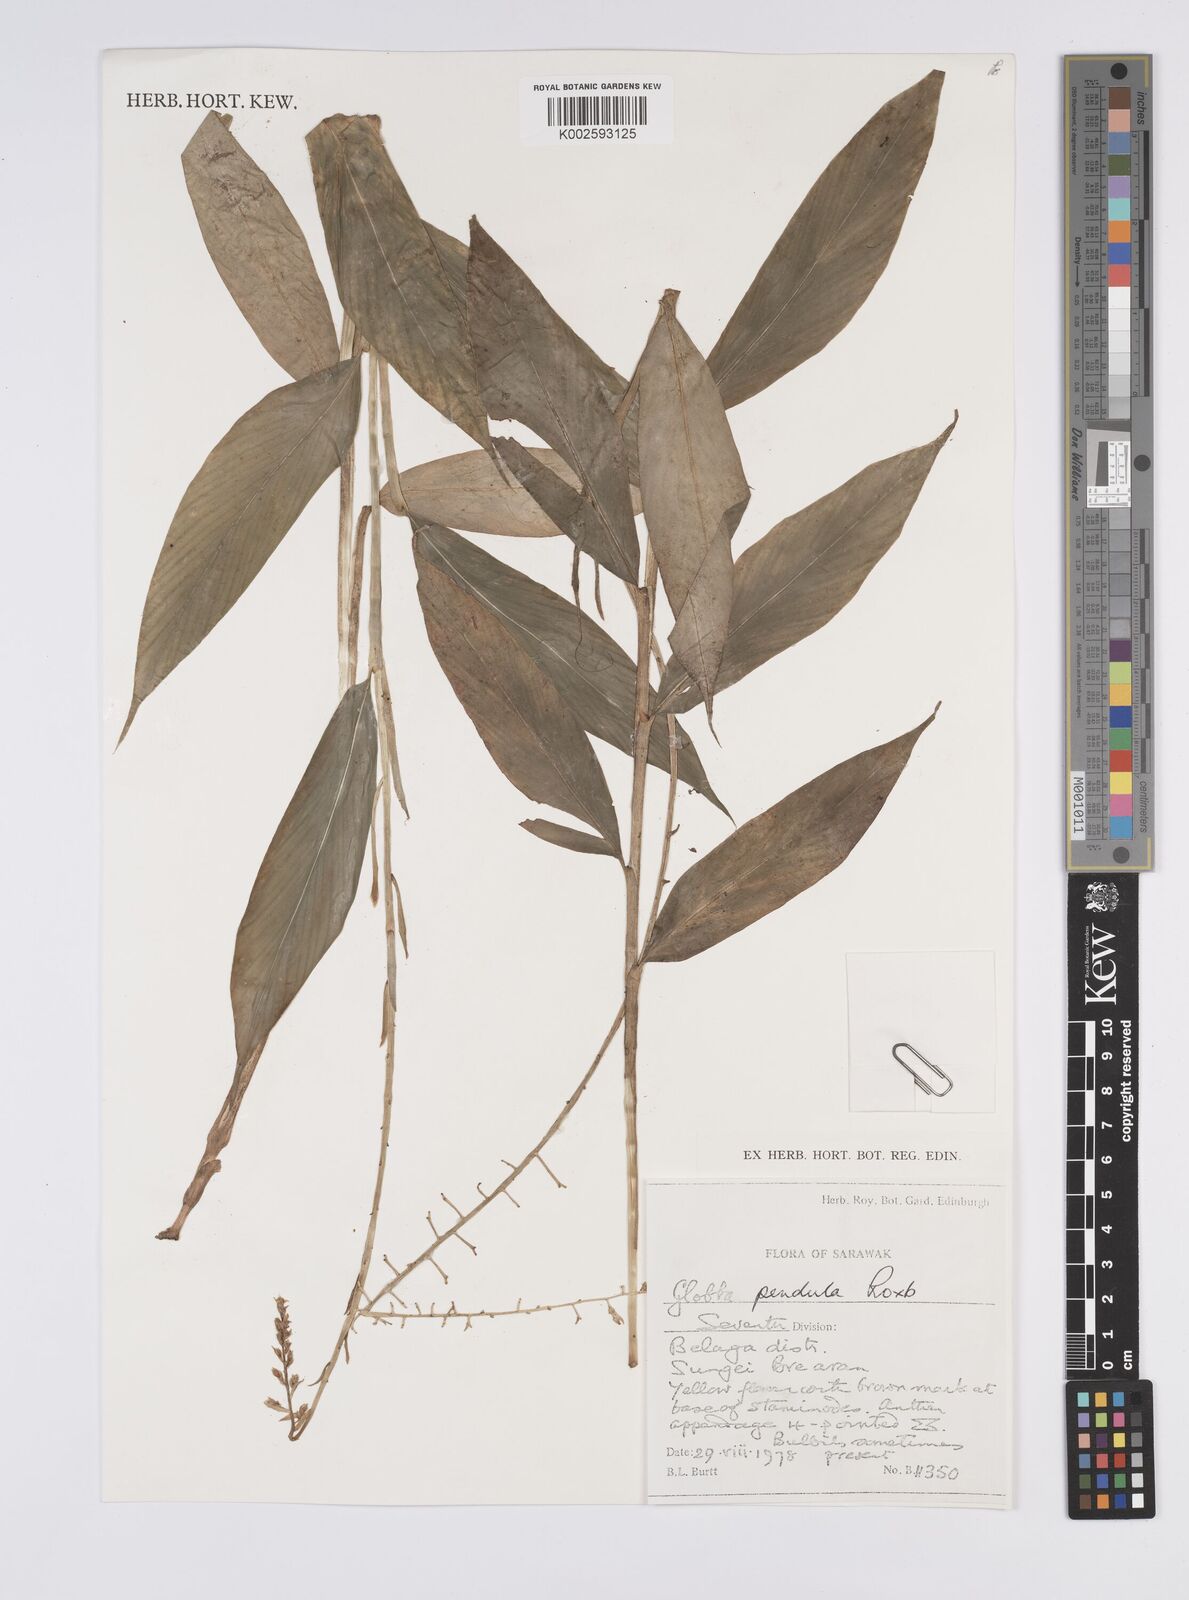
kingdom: Plantae
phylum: Tracheophyta
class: Liliopsida
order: Zingiberales
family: Zingiberaceae
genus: Globba
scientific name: Globba pendula
